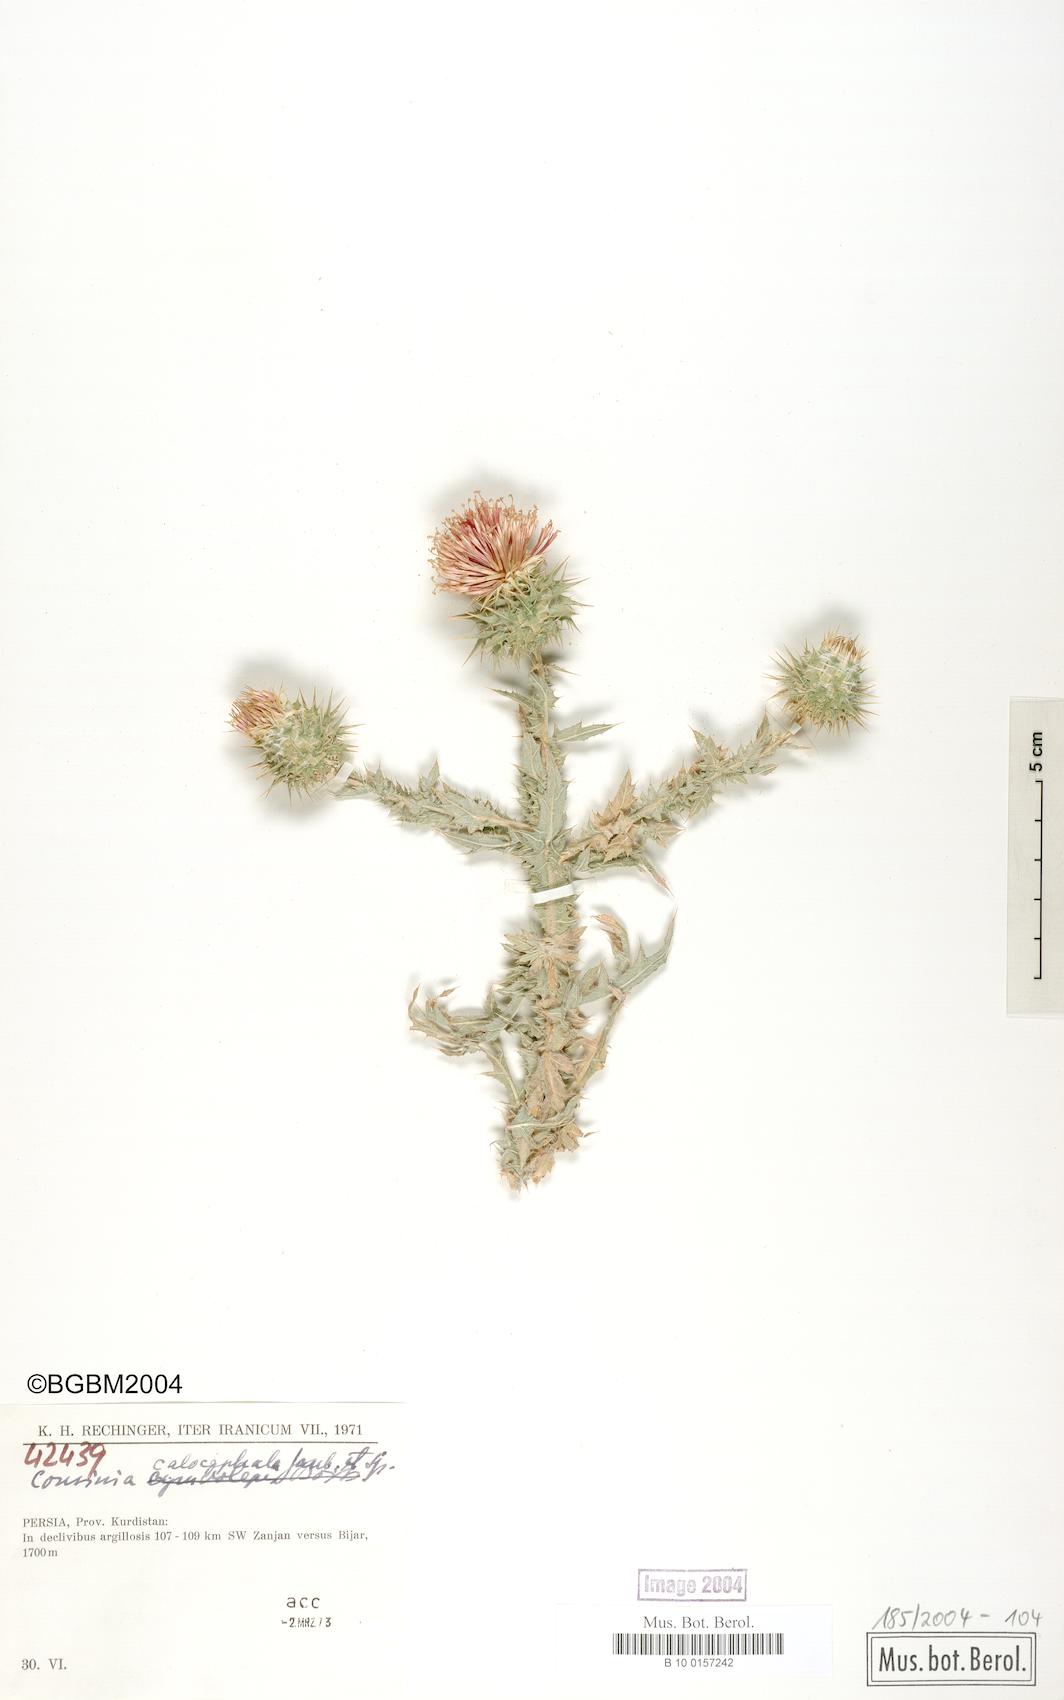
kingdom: Plantae
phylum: Tracheophyta
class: Magnoliopsida
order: Asterales
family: Asteraceae
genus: Cousinia
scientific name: Cousinia calocephala
